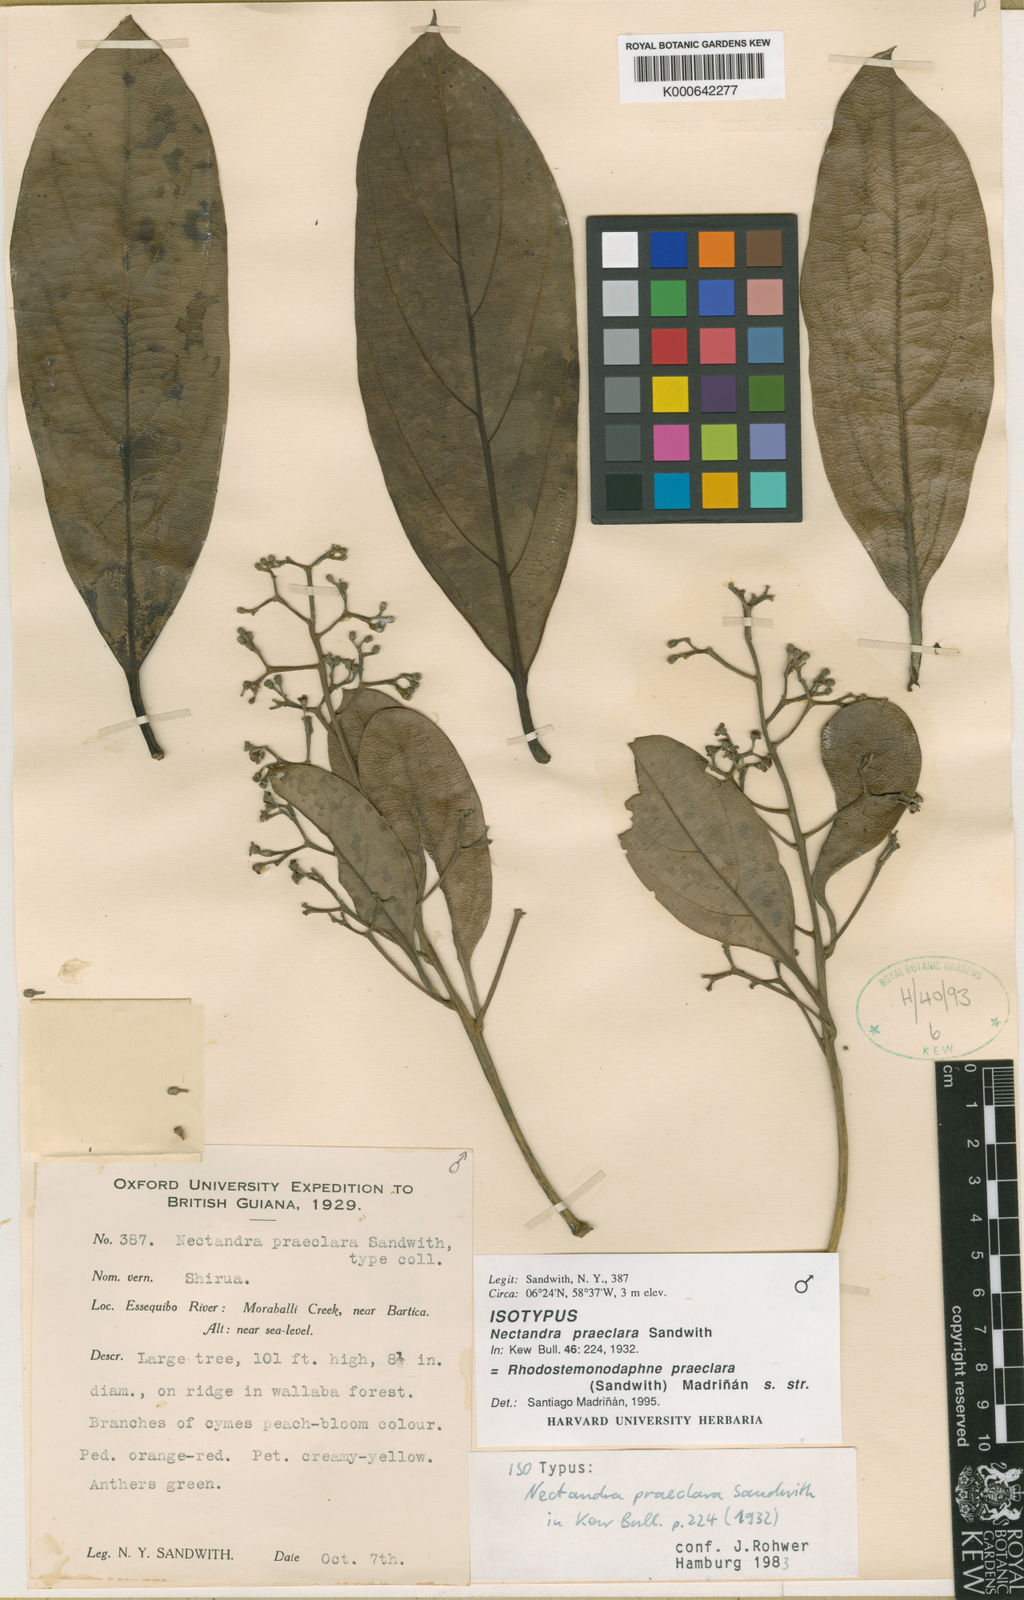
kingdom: Plantae
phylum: Tracheophyta
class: Magnoliopsida
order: Laurales
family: Lauraceae
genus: Rhodostemonodaphne
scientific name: Rhodostemonodaphne
